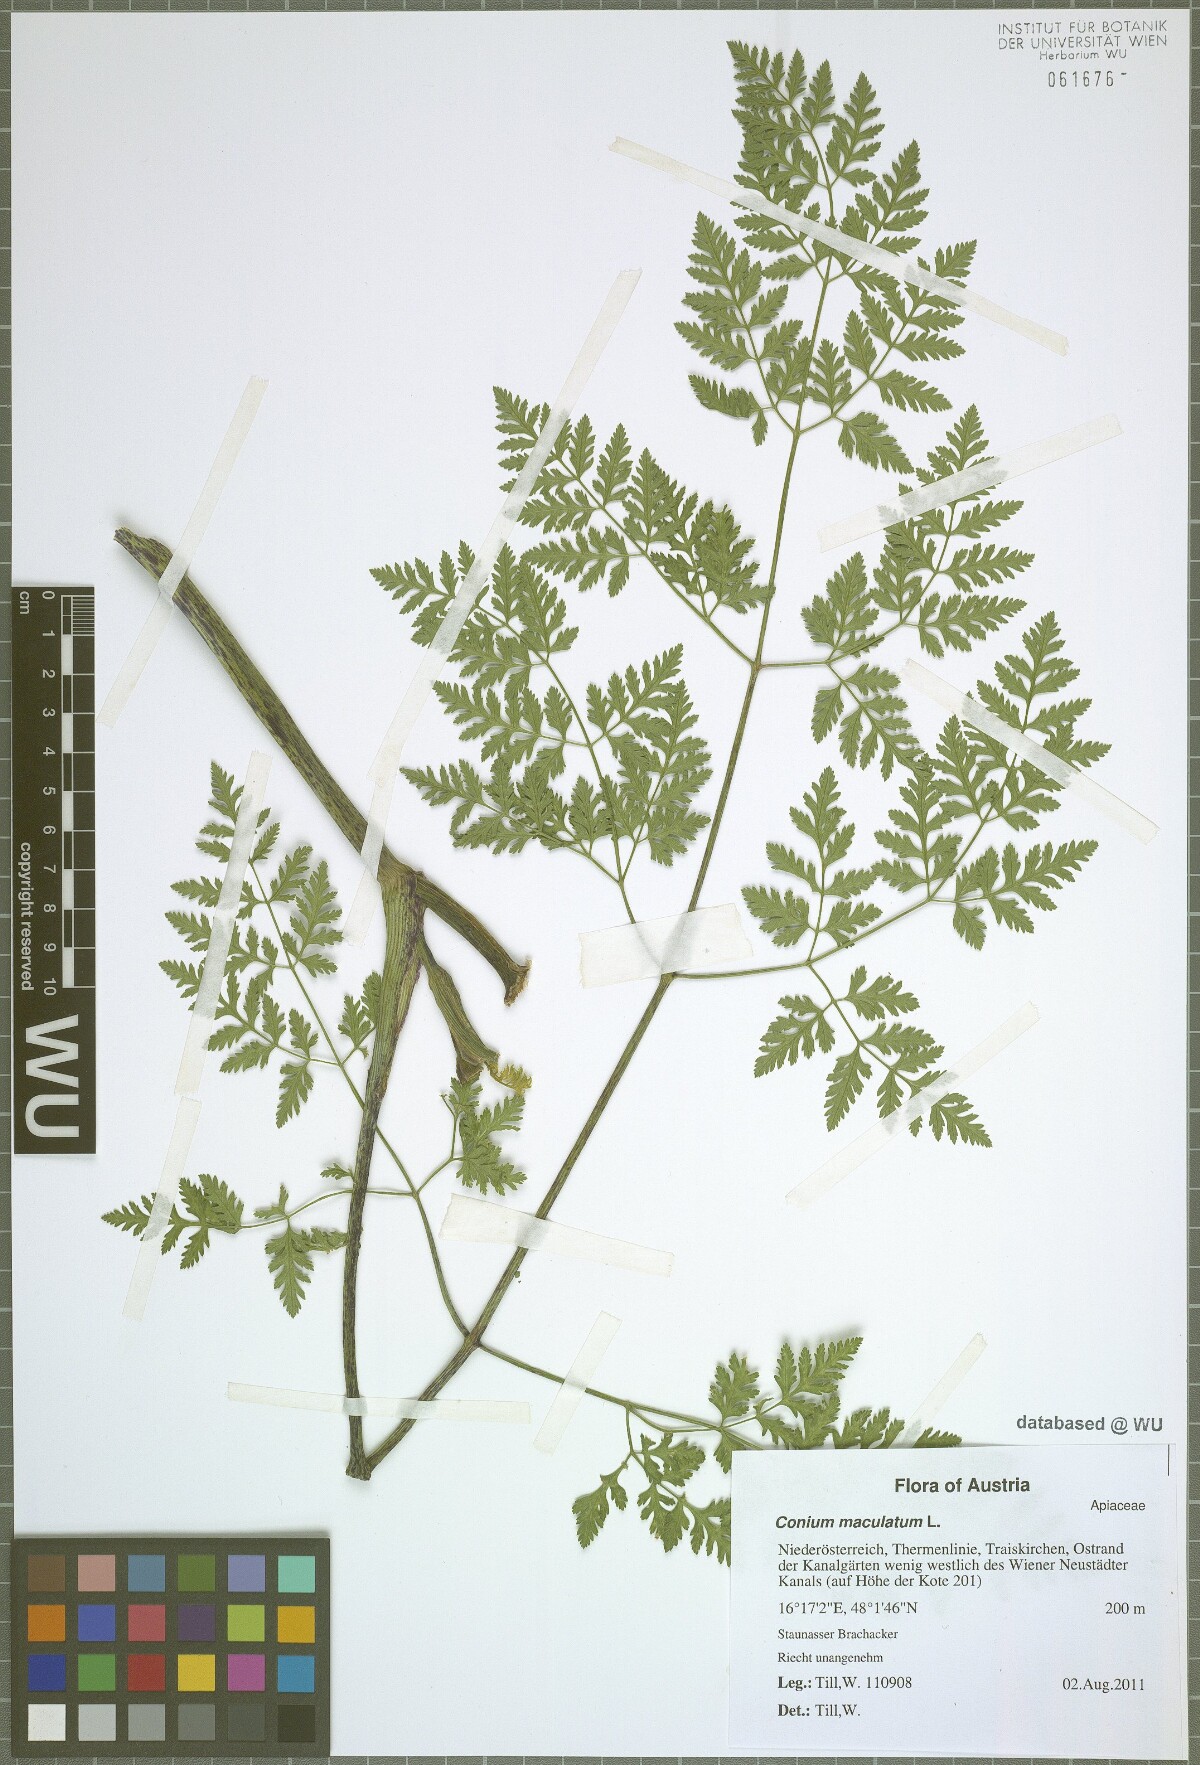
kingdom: Plantae
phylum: Tracheophyta
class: Magnoliopsida
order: Apiales
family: Apiaceae
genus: Conium
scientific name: Conium maculatum
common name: Hemlock
